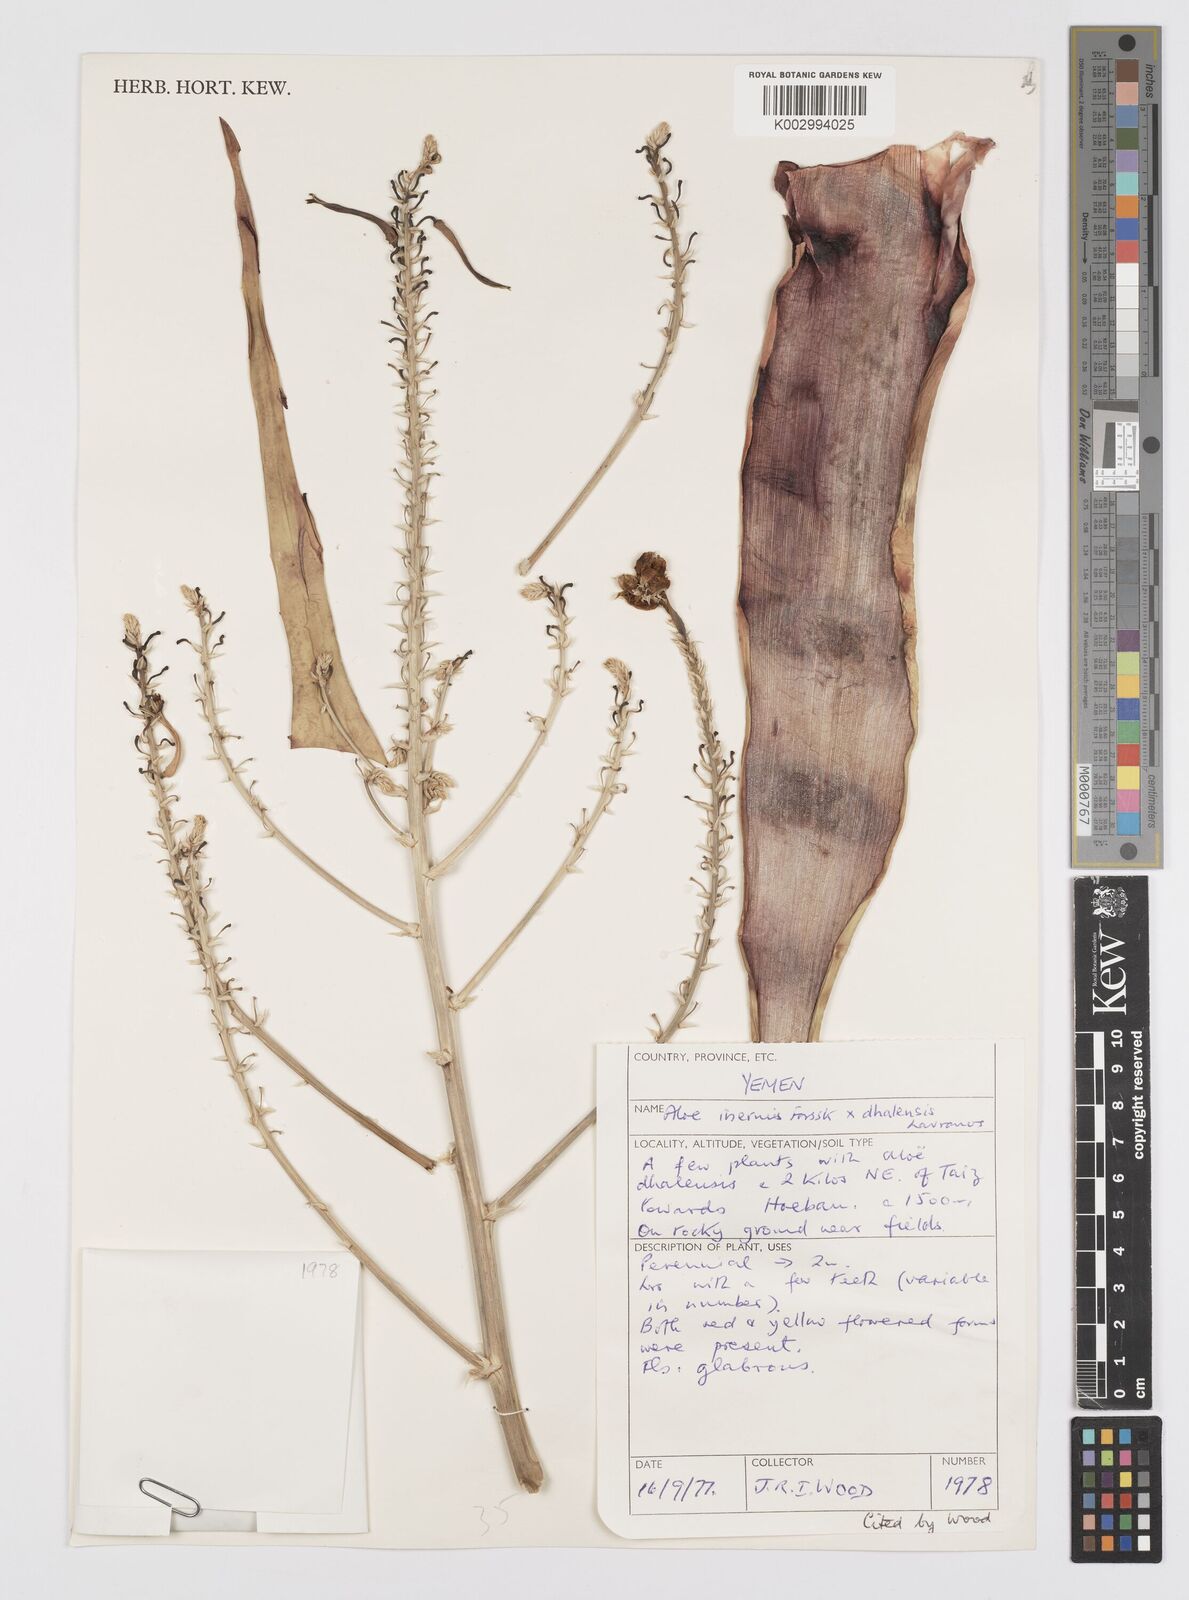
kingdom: Plantae
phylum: Tracheophyta
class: Liliopsida
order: Asparagales
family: Asphodelaceae
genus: Aloe
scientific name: Aloe inermis
